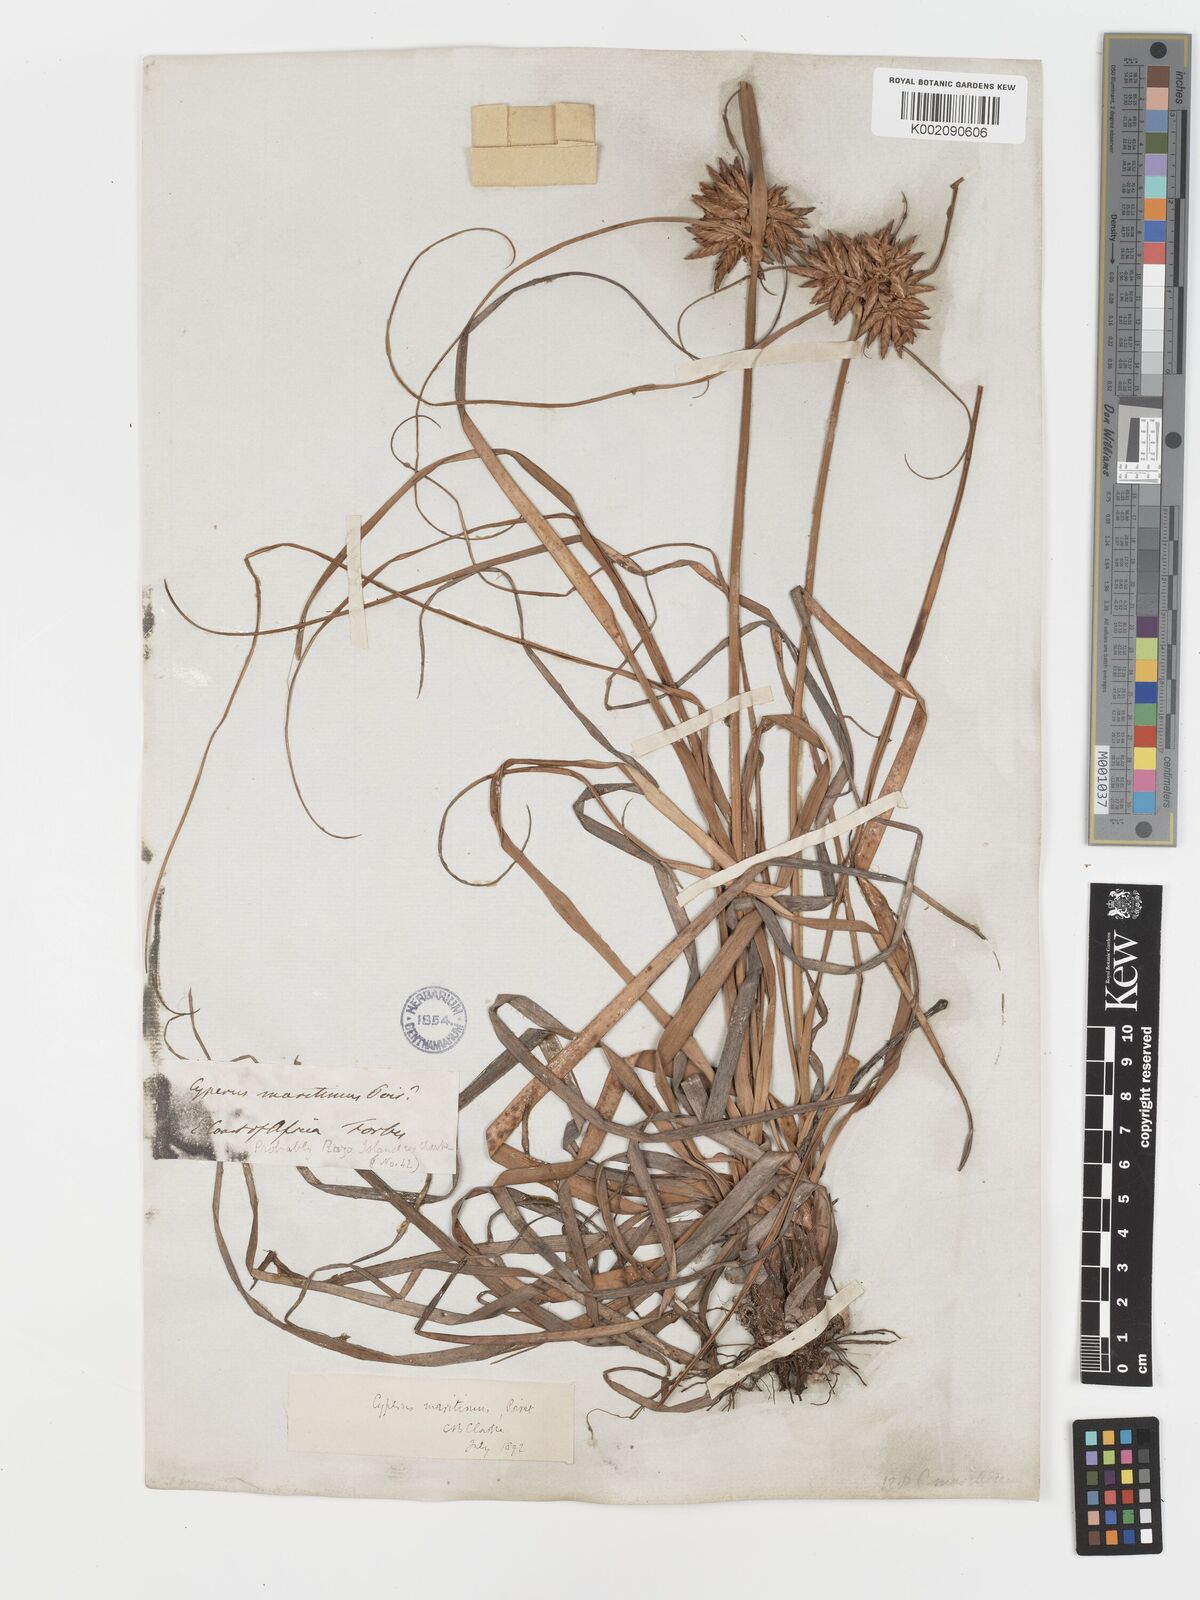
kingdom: Plantae
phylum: Tracheophyta
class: Liliopsida
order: Poales
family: Cyperaceae
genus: Cyperus
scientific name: Cyperus crassipes
